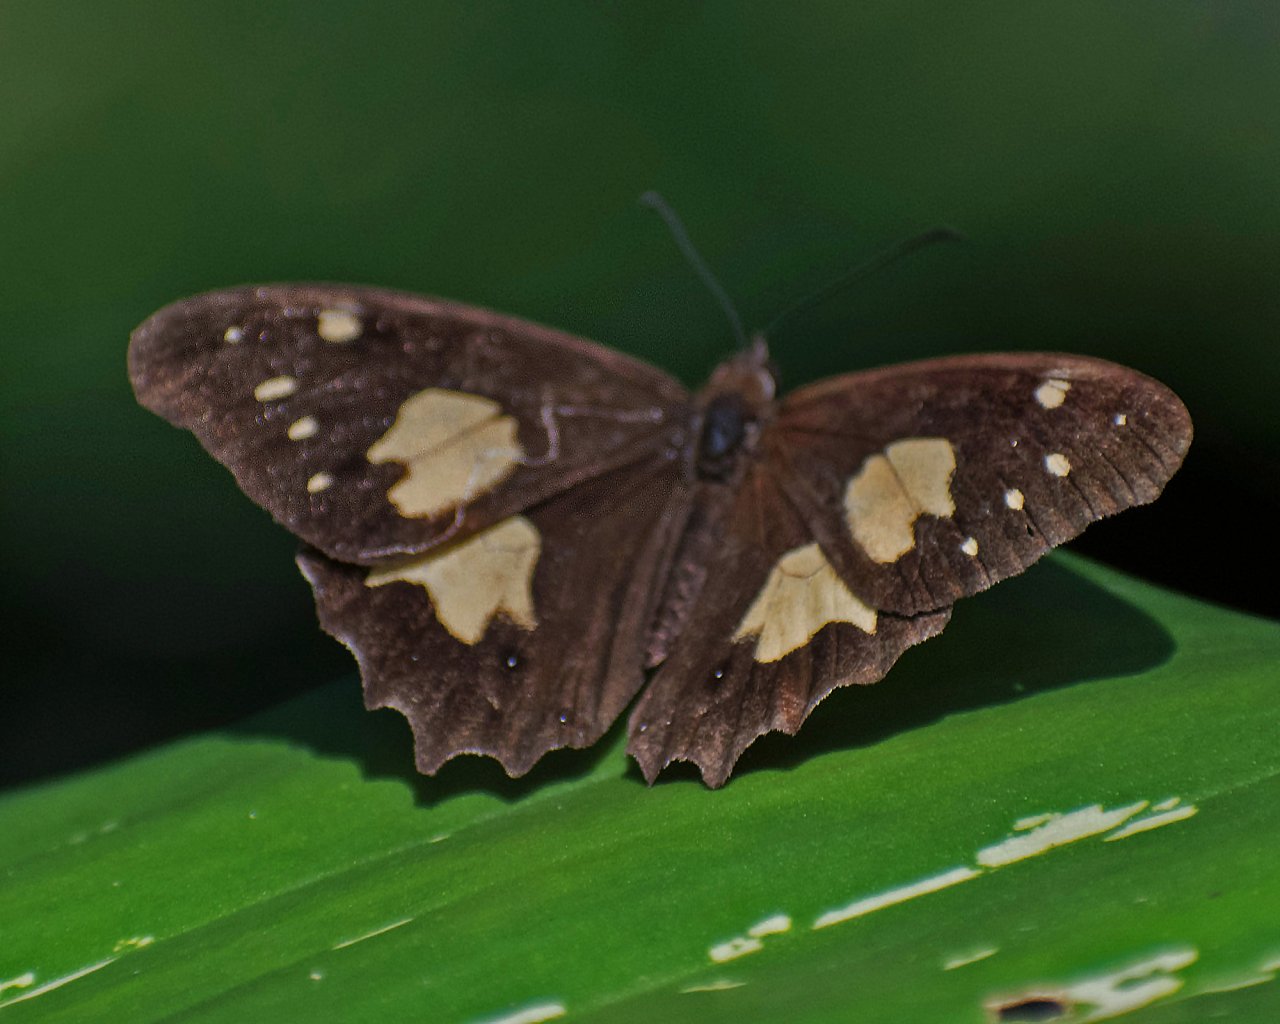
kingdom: Animalia
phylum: Arthropoda
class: Insecta
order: Lepidoptera
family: Nymphalidae
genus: Oxeoschistus
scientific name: Oxeoschistus tauropolis
